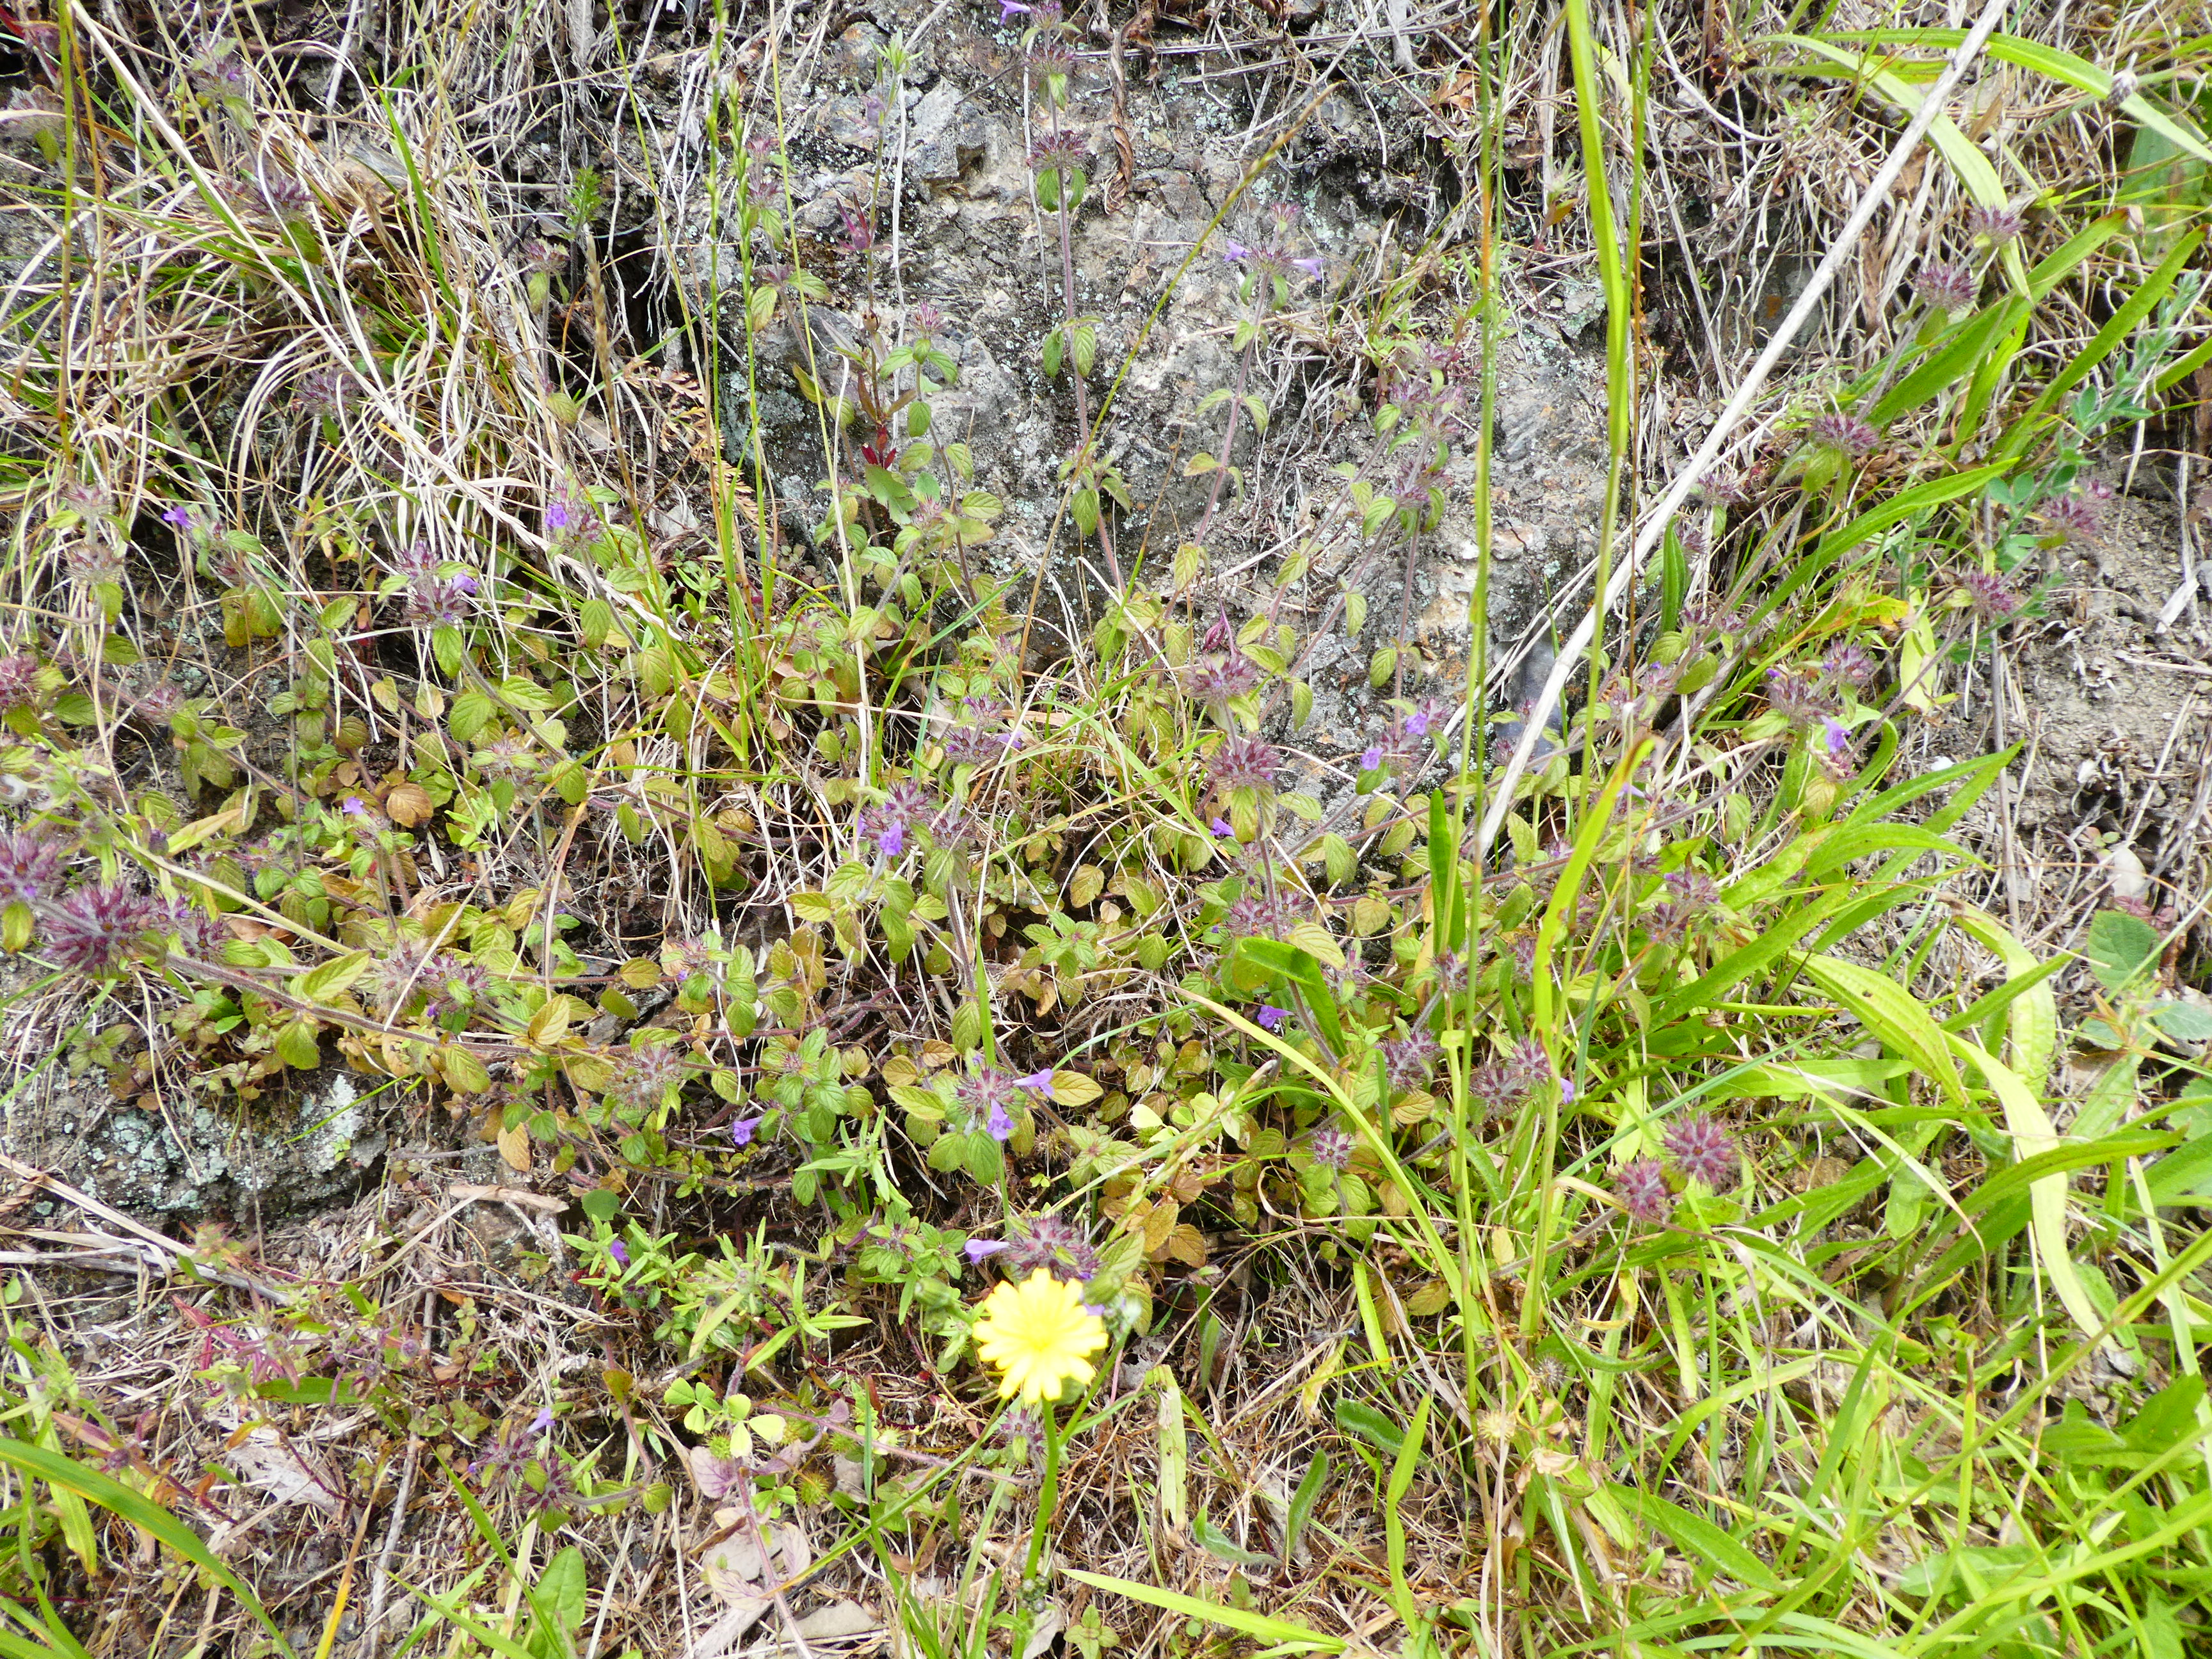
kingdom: Plantae
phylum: Tracheophyta
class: Magnoliopsida
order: Lamiales
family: Lamiaceae
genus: Clinopodium
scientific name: Clinopodium vulgare
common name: Wild basil
